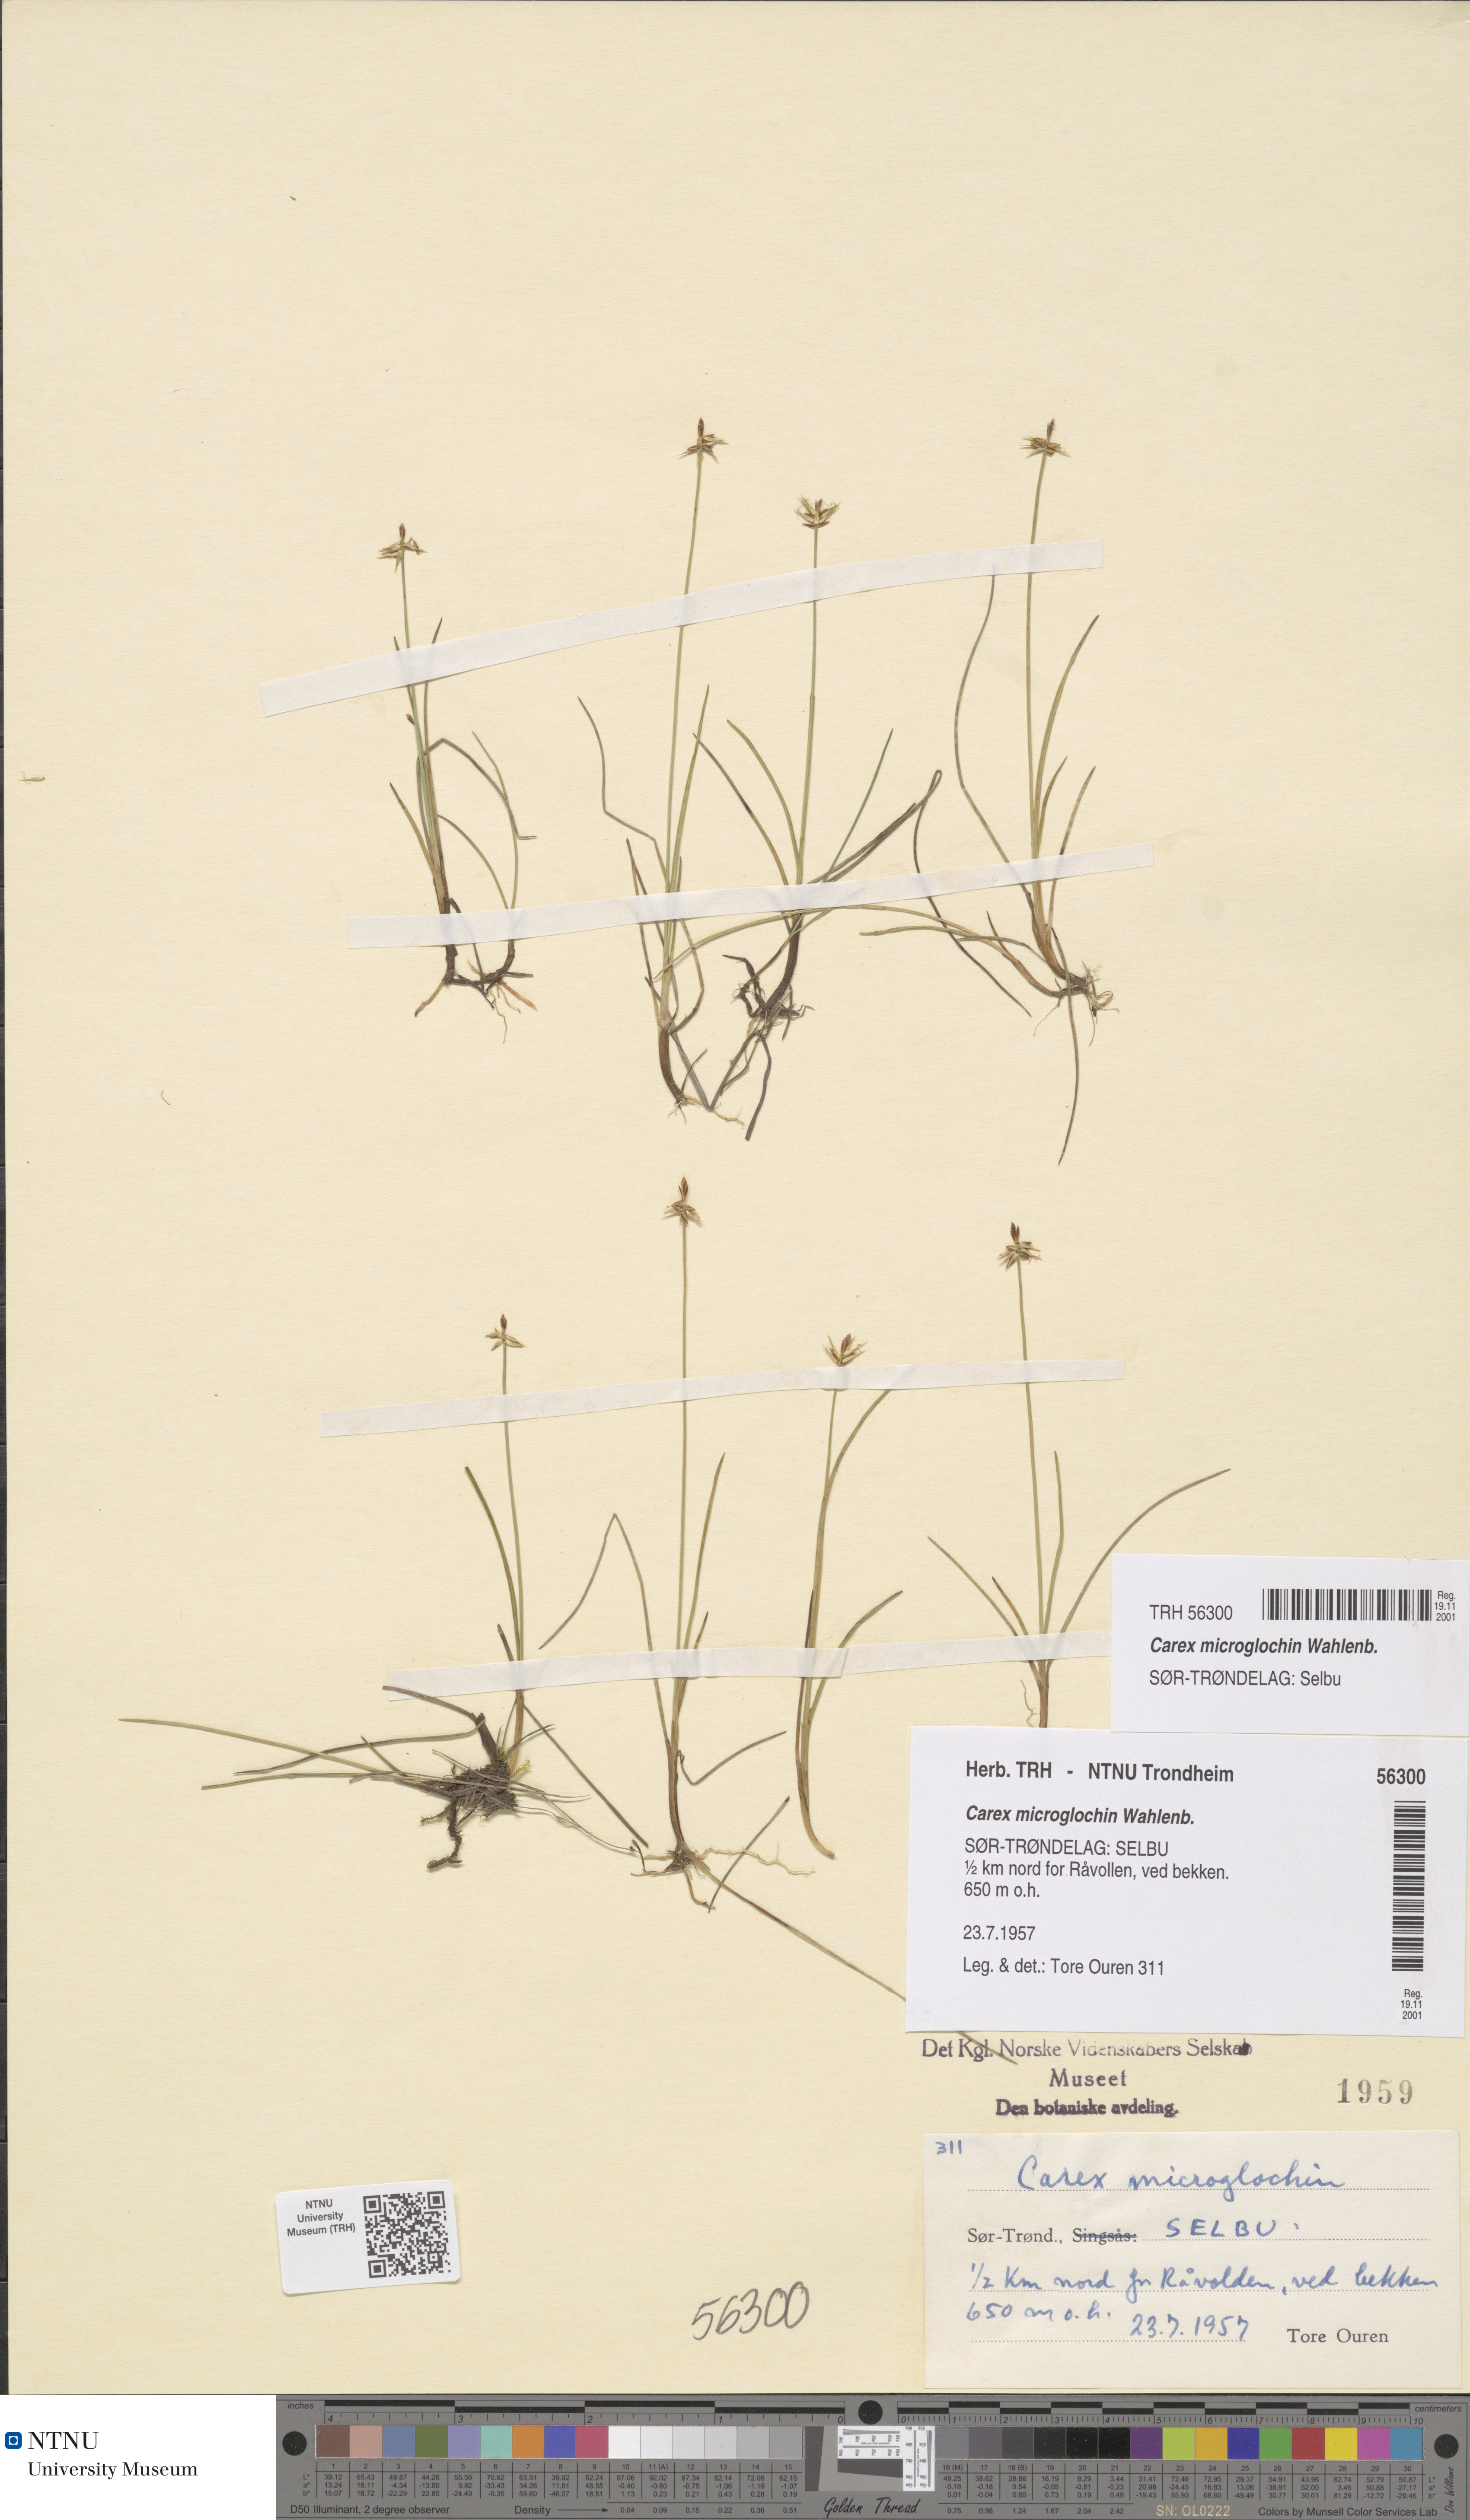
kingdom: Plantae
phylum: Tracheophyta
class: Liliopsida
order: Poales
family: Cyperaceae
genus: Carex
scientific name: Carex microglochin
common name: Bristle sedge
